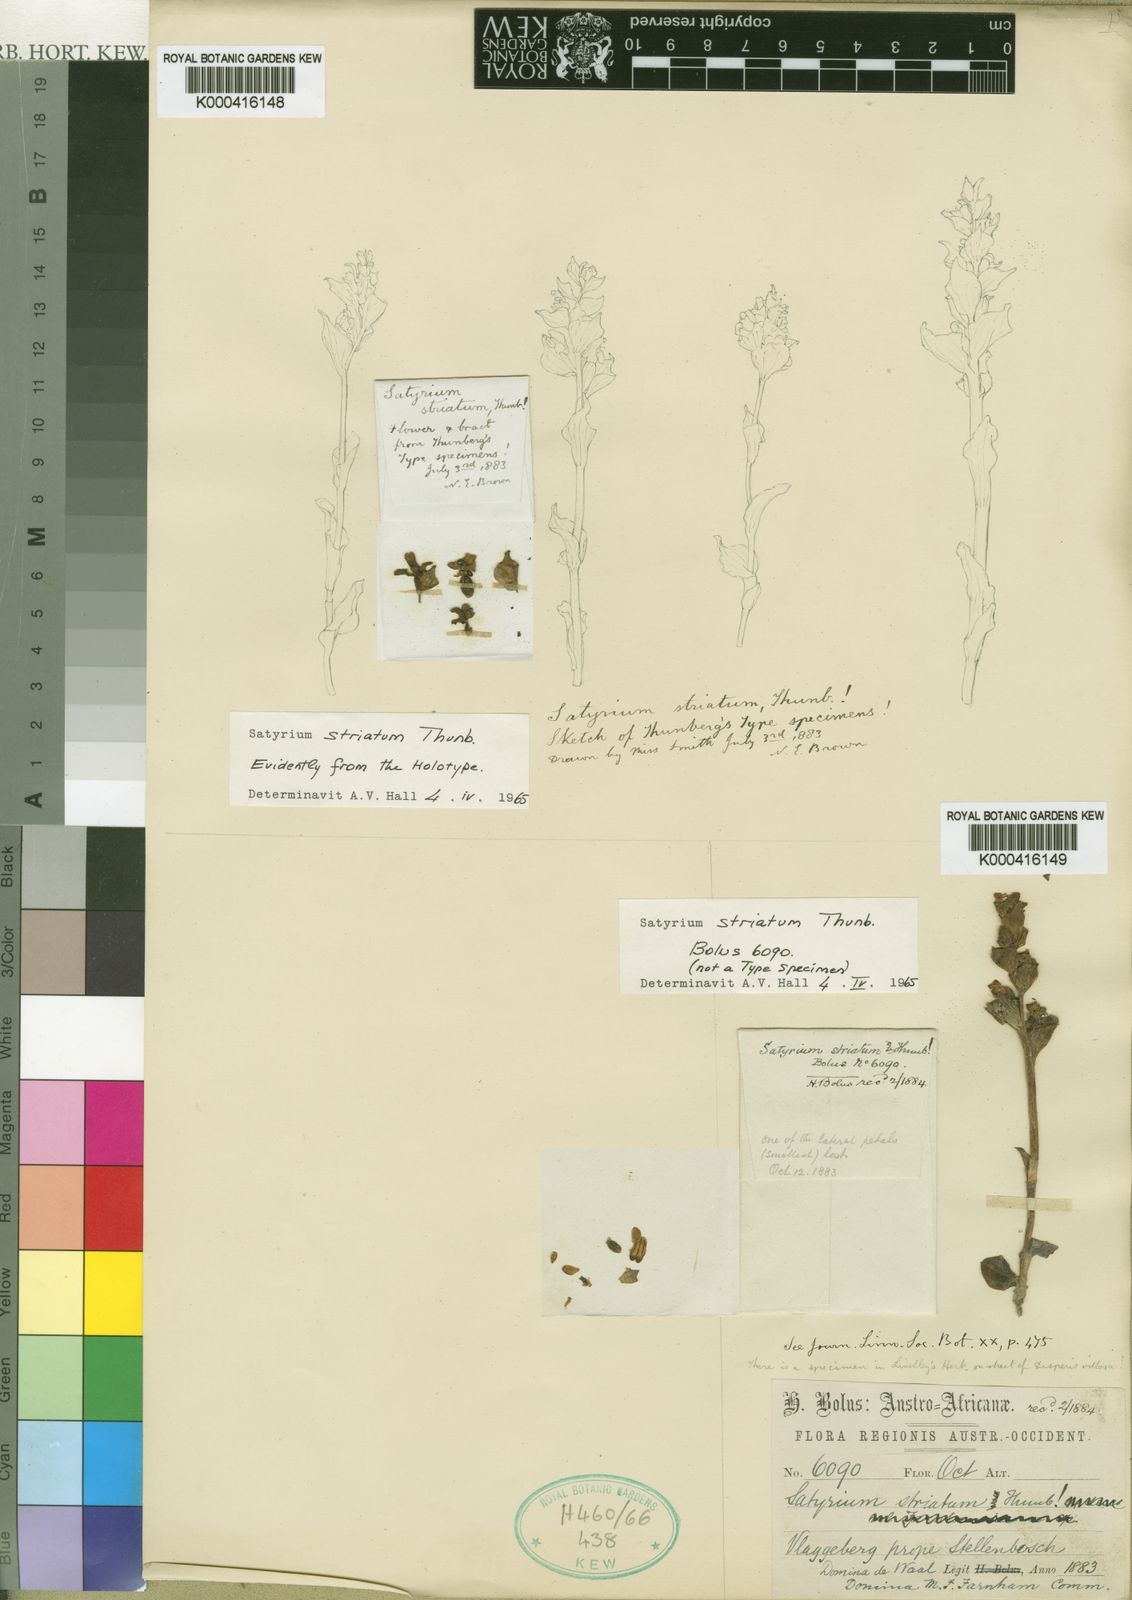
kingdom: Plantae
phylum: Tracheophyta
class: Liliopsida
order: Asparagales
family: Orchidaceae
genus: Satyrium
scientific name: Satyrium striatum
